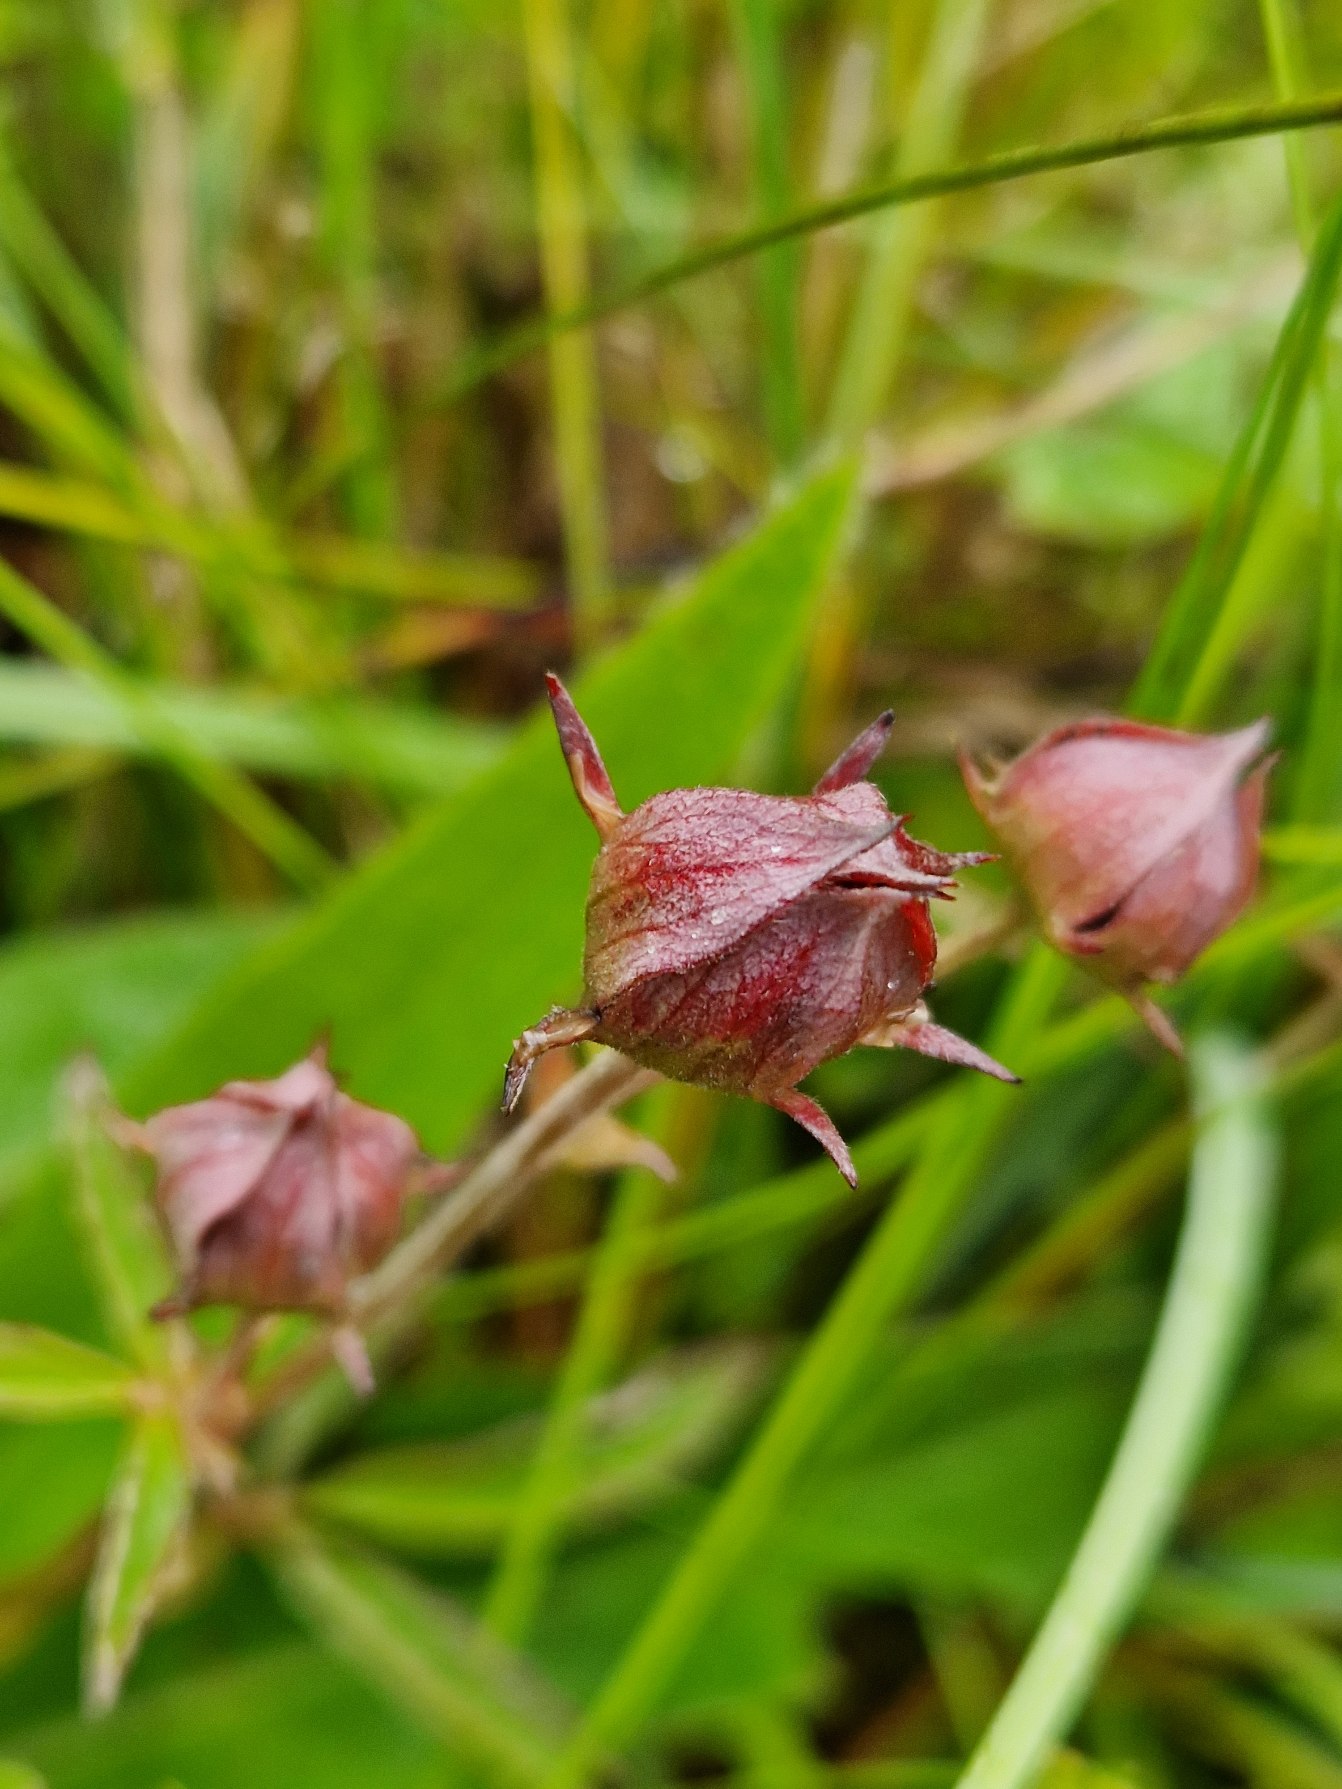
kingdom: Plantae
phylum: Tracheophyta
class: Magnoliopsida
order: Rosales
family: Rosaceae
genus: Comarum
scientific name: Comarum palustre
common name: Kragefod
